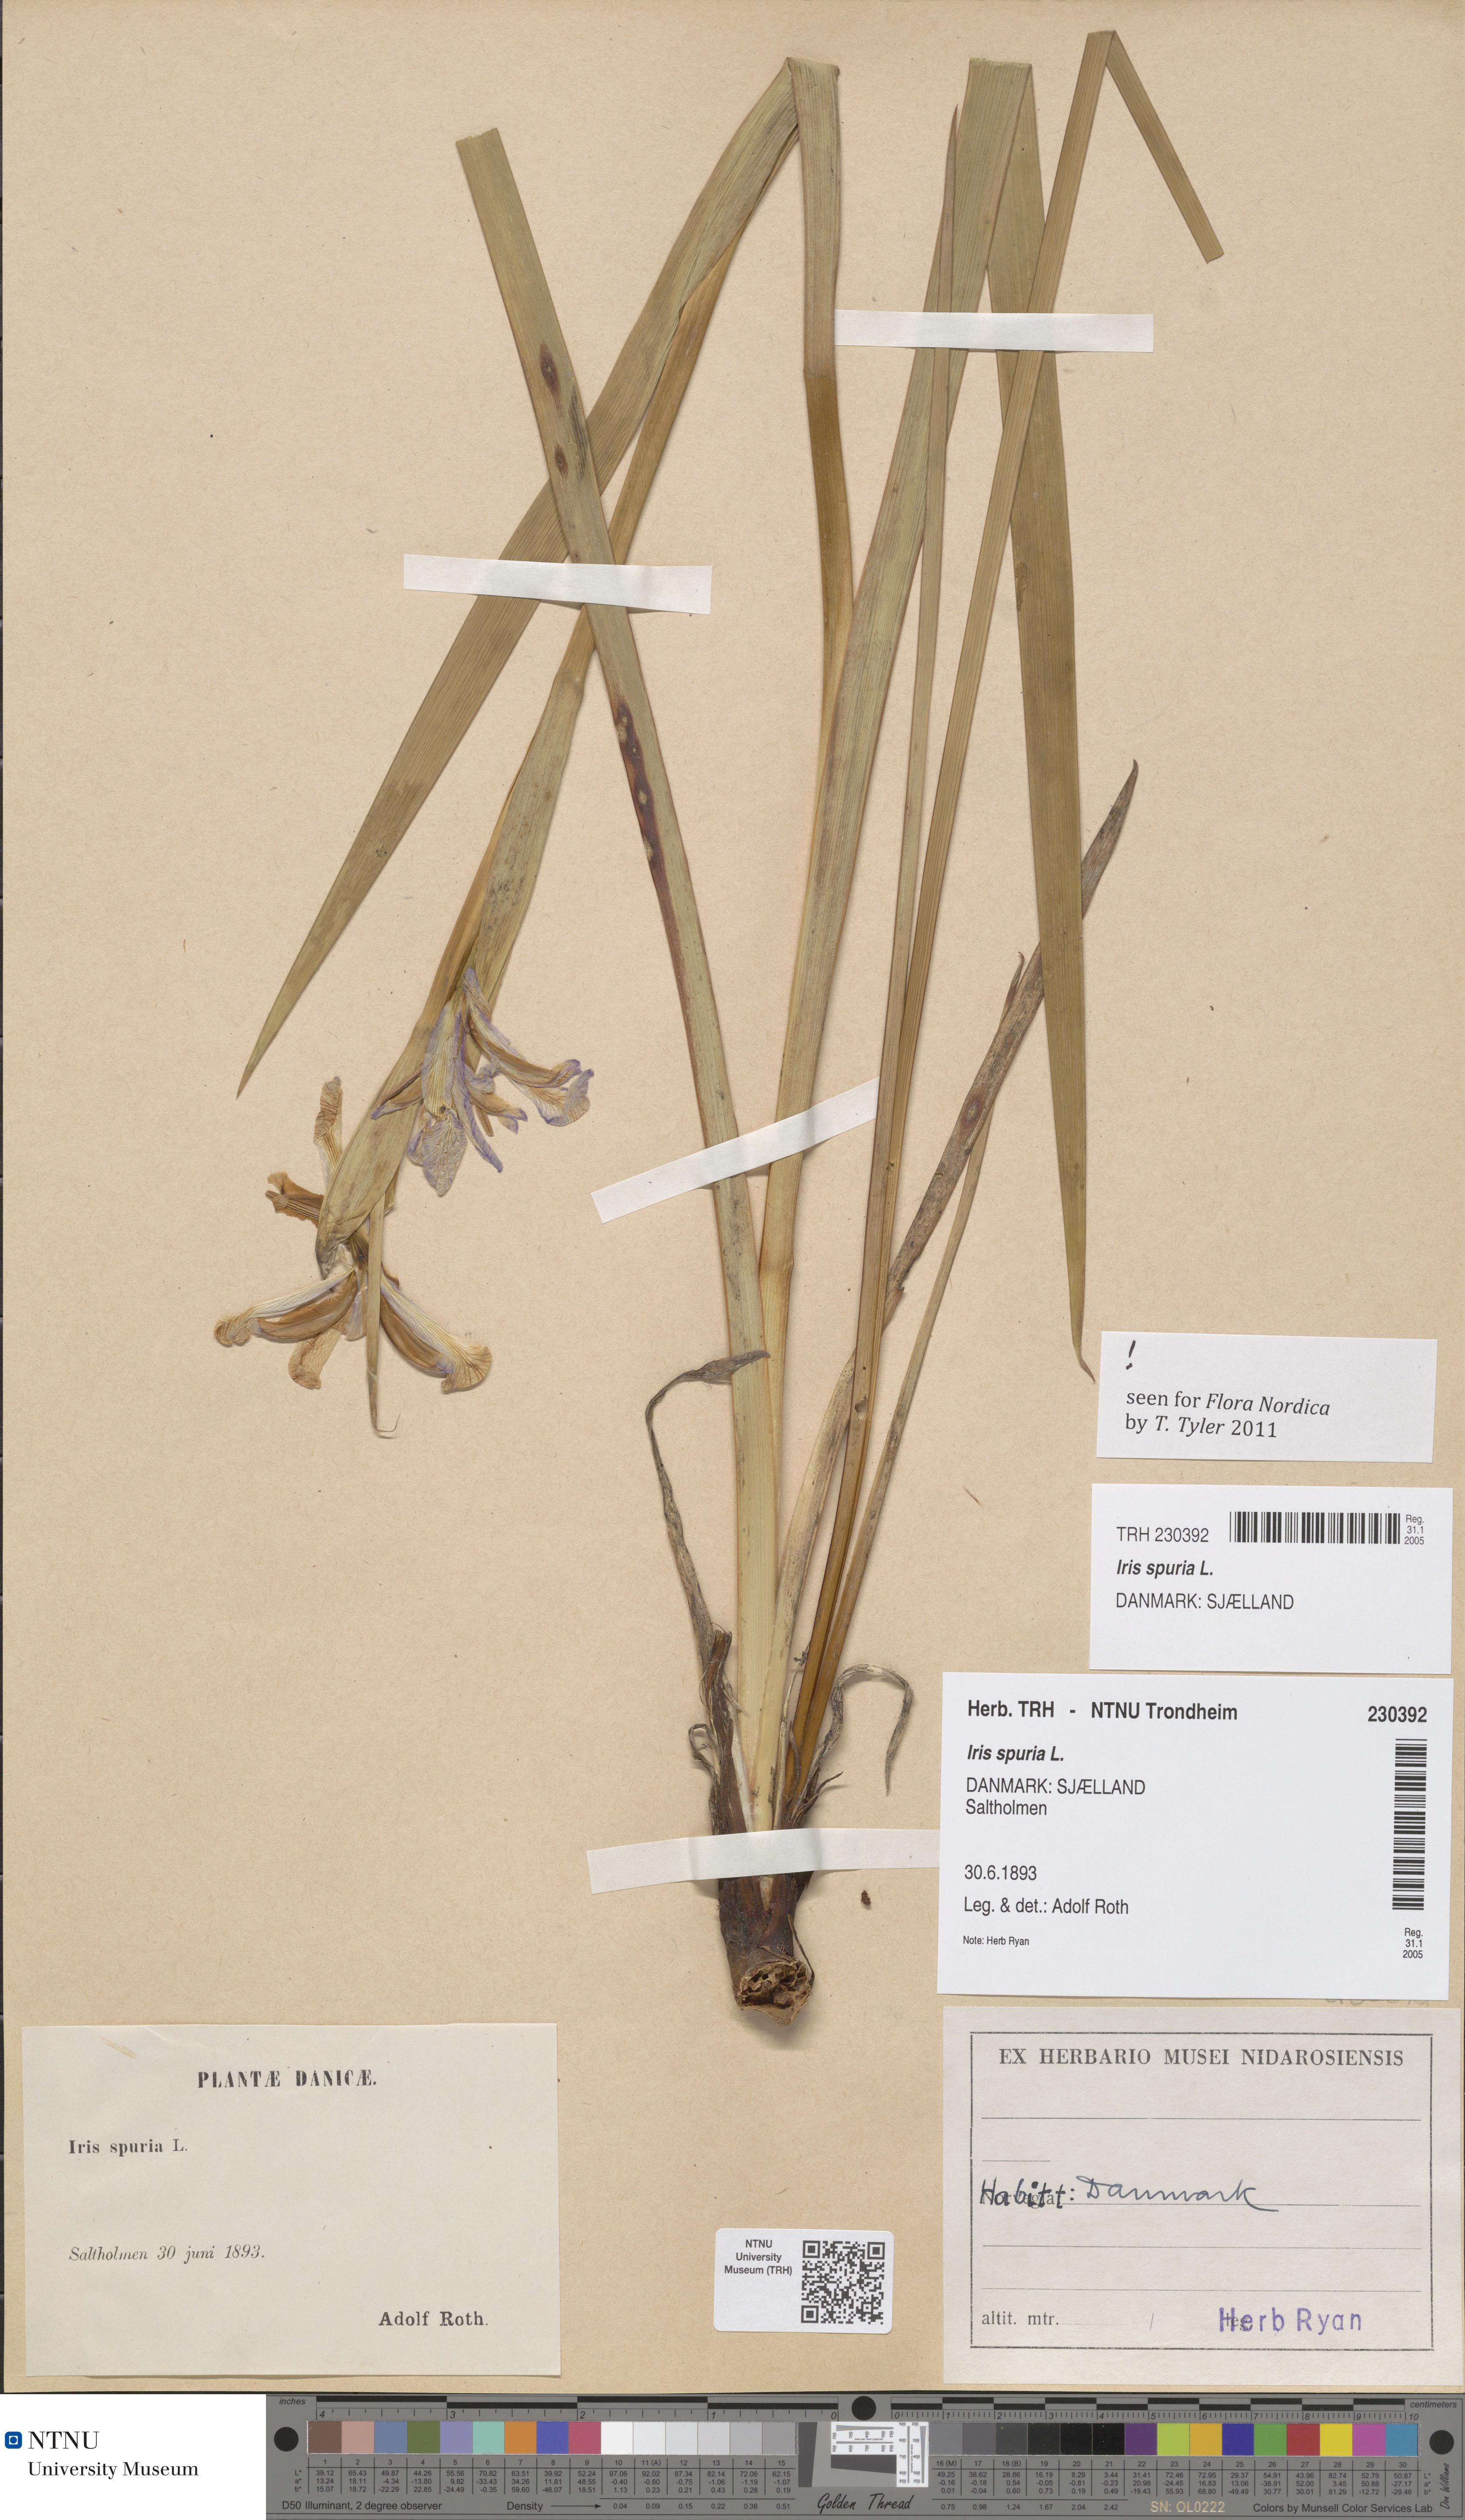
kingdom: Plantae
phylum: Tracheophyta
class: Liliopsida
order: Asparagales
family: Iridaceae
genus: Iris
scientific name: Iris spuria
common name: Blue iris
